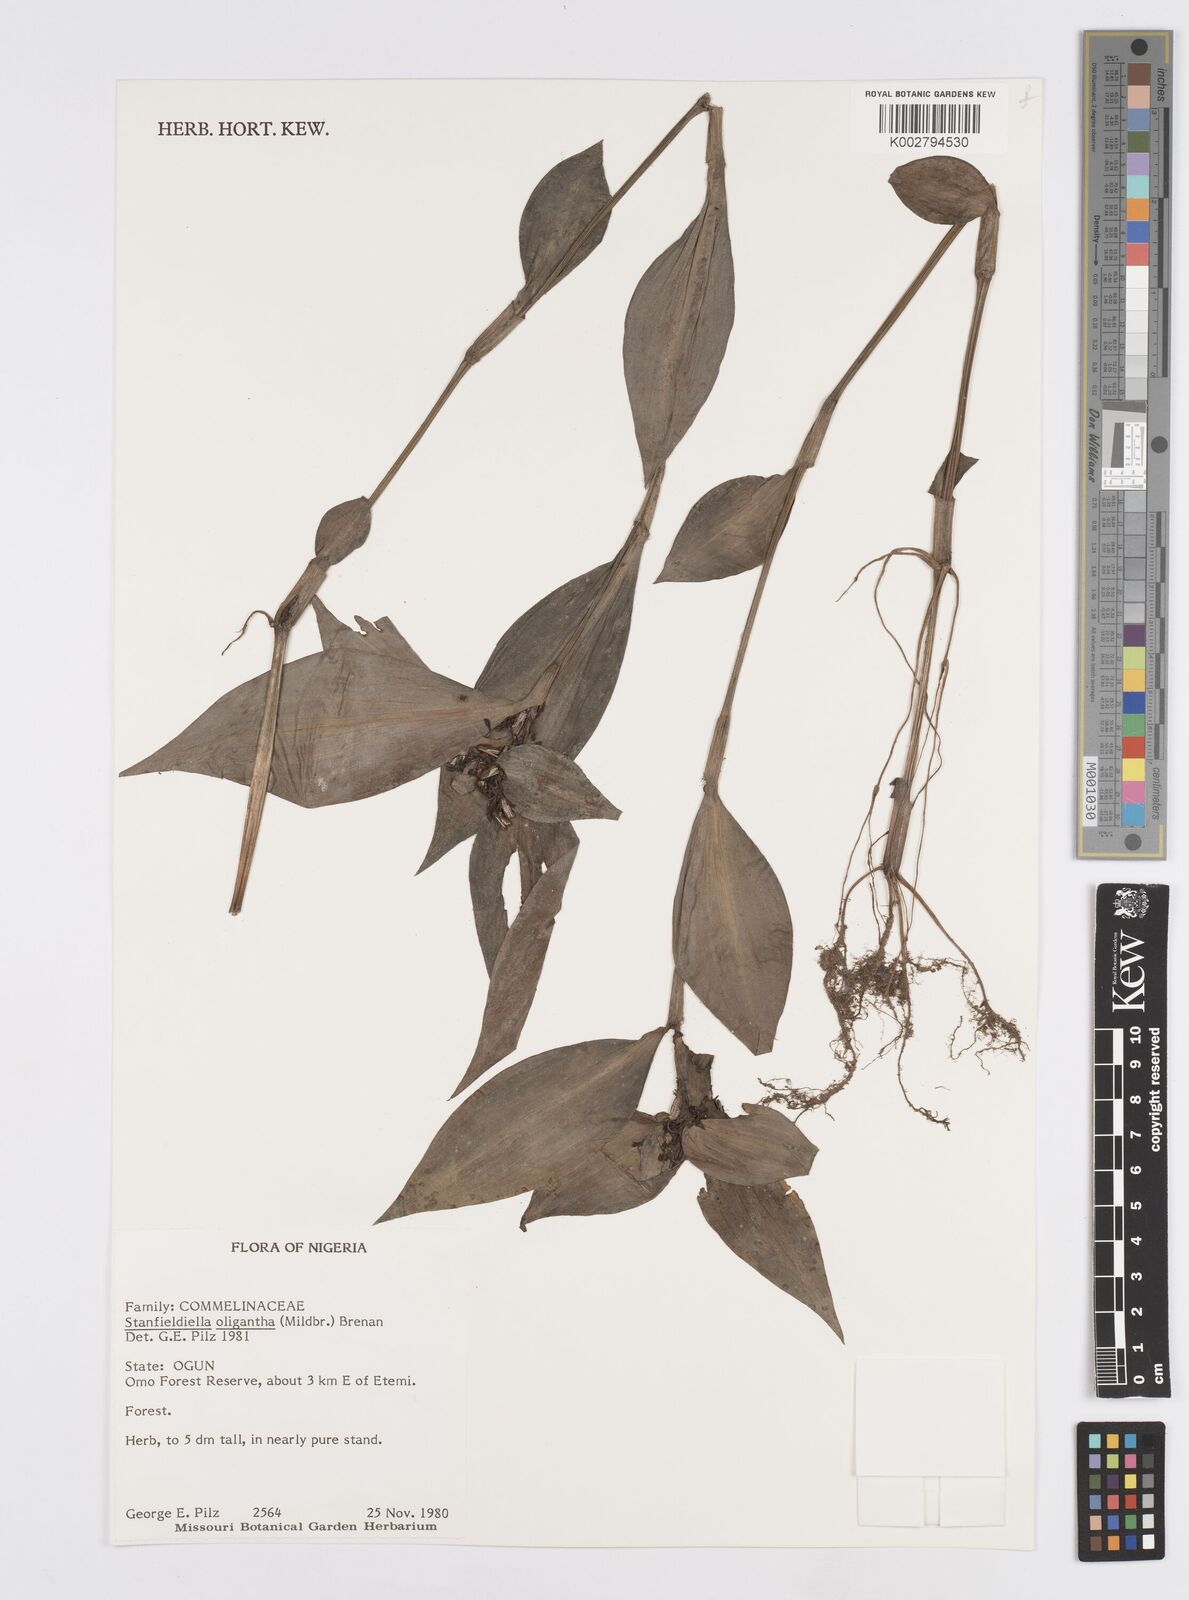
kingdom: Plantae
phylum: Tracheophyta
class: Liliopsida
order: Commelinales
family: Commelinaceae
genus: Stanfieldiella
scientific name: Stanfieldiella oligantha
